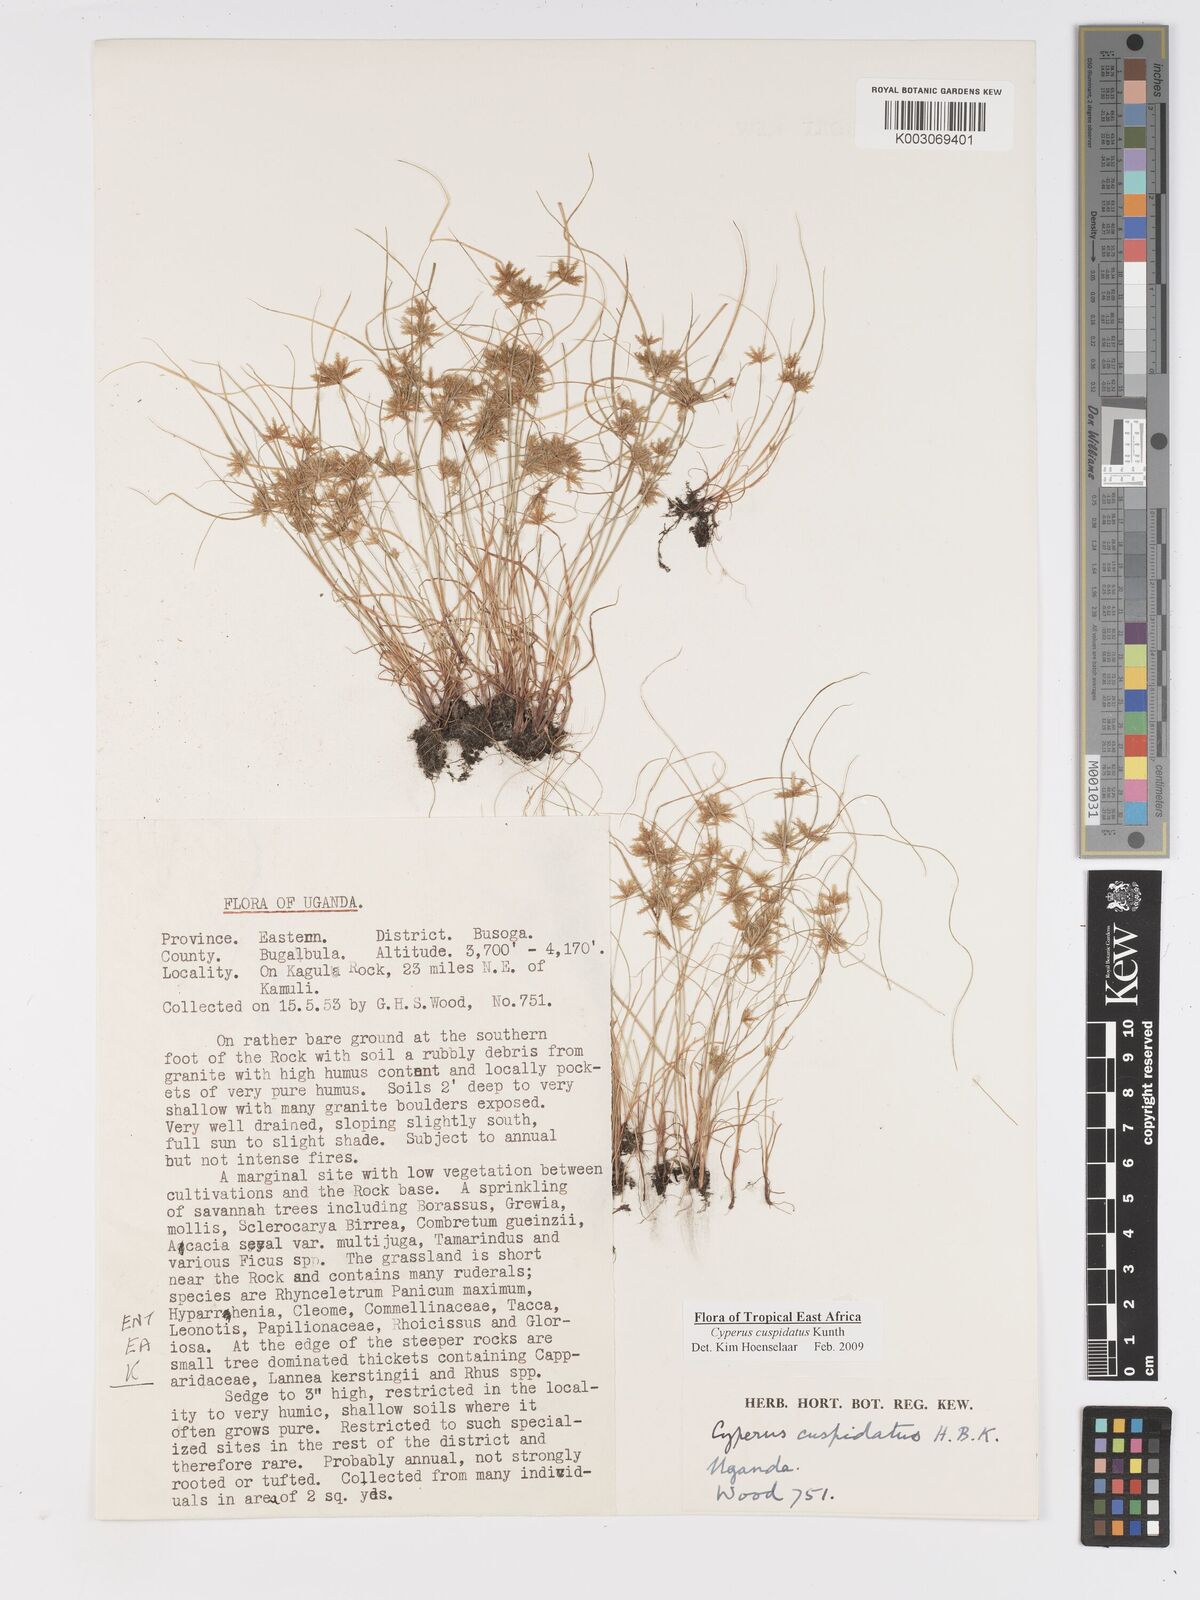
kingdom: Plantae
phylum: Tracheophyta
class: Liliopsida
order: Poales
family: Cyperaceae
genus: Cyperus
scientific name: Cyperus cuspidatus
